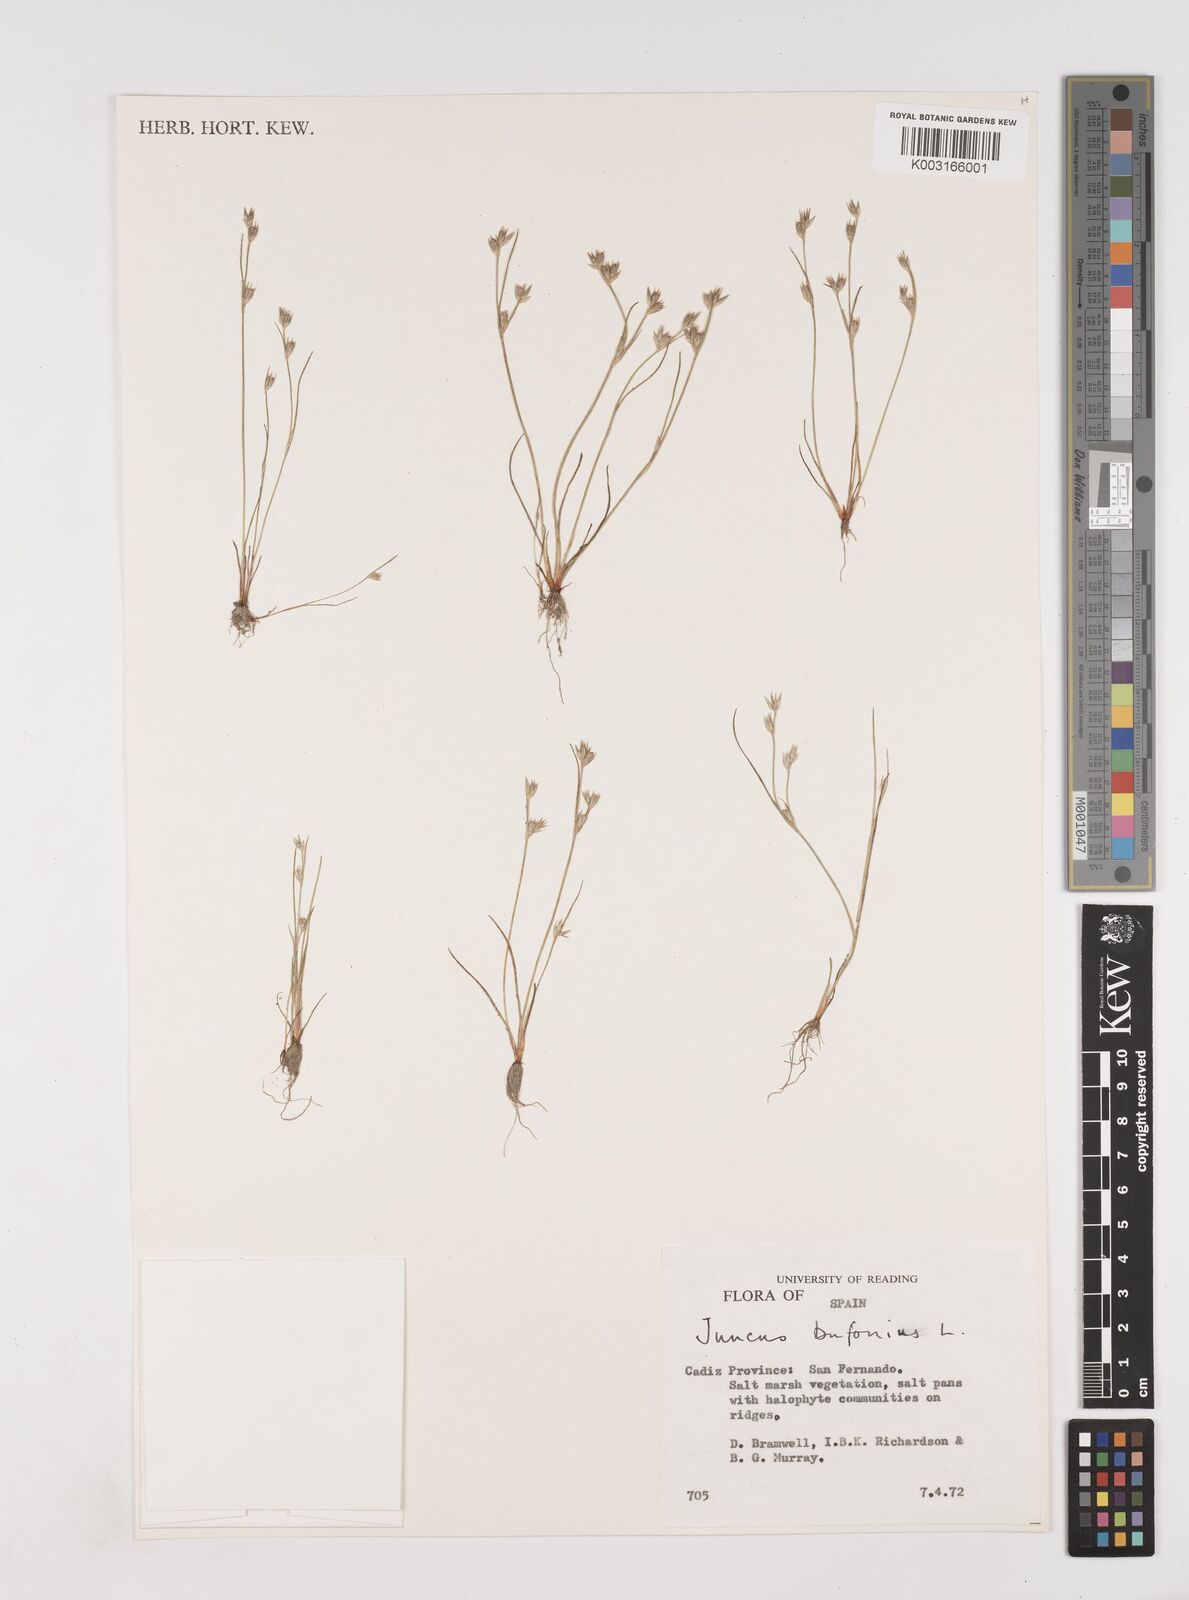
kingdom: Plantae
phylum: Tracheophyta
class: Liliopsida
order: Poales
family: Juncaceae
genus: Juncus
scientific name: Juncus bufonius
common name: Toad rush
